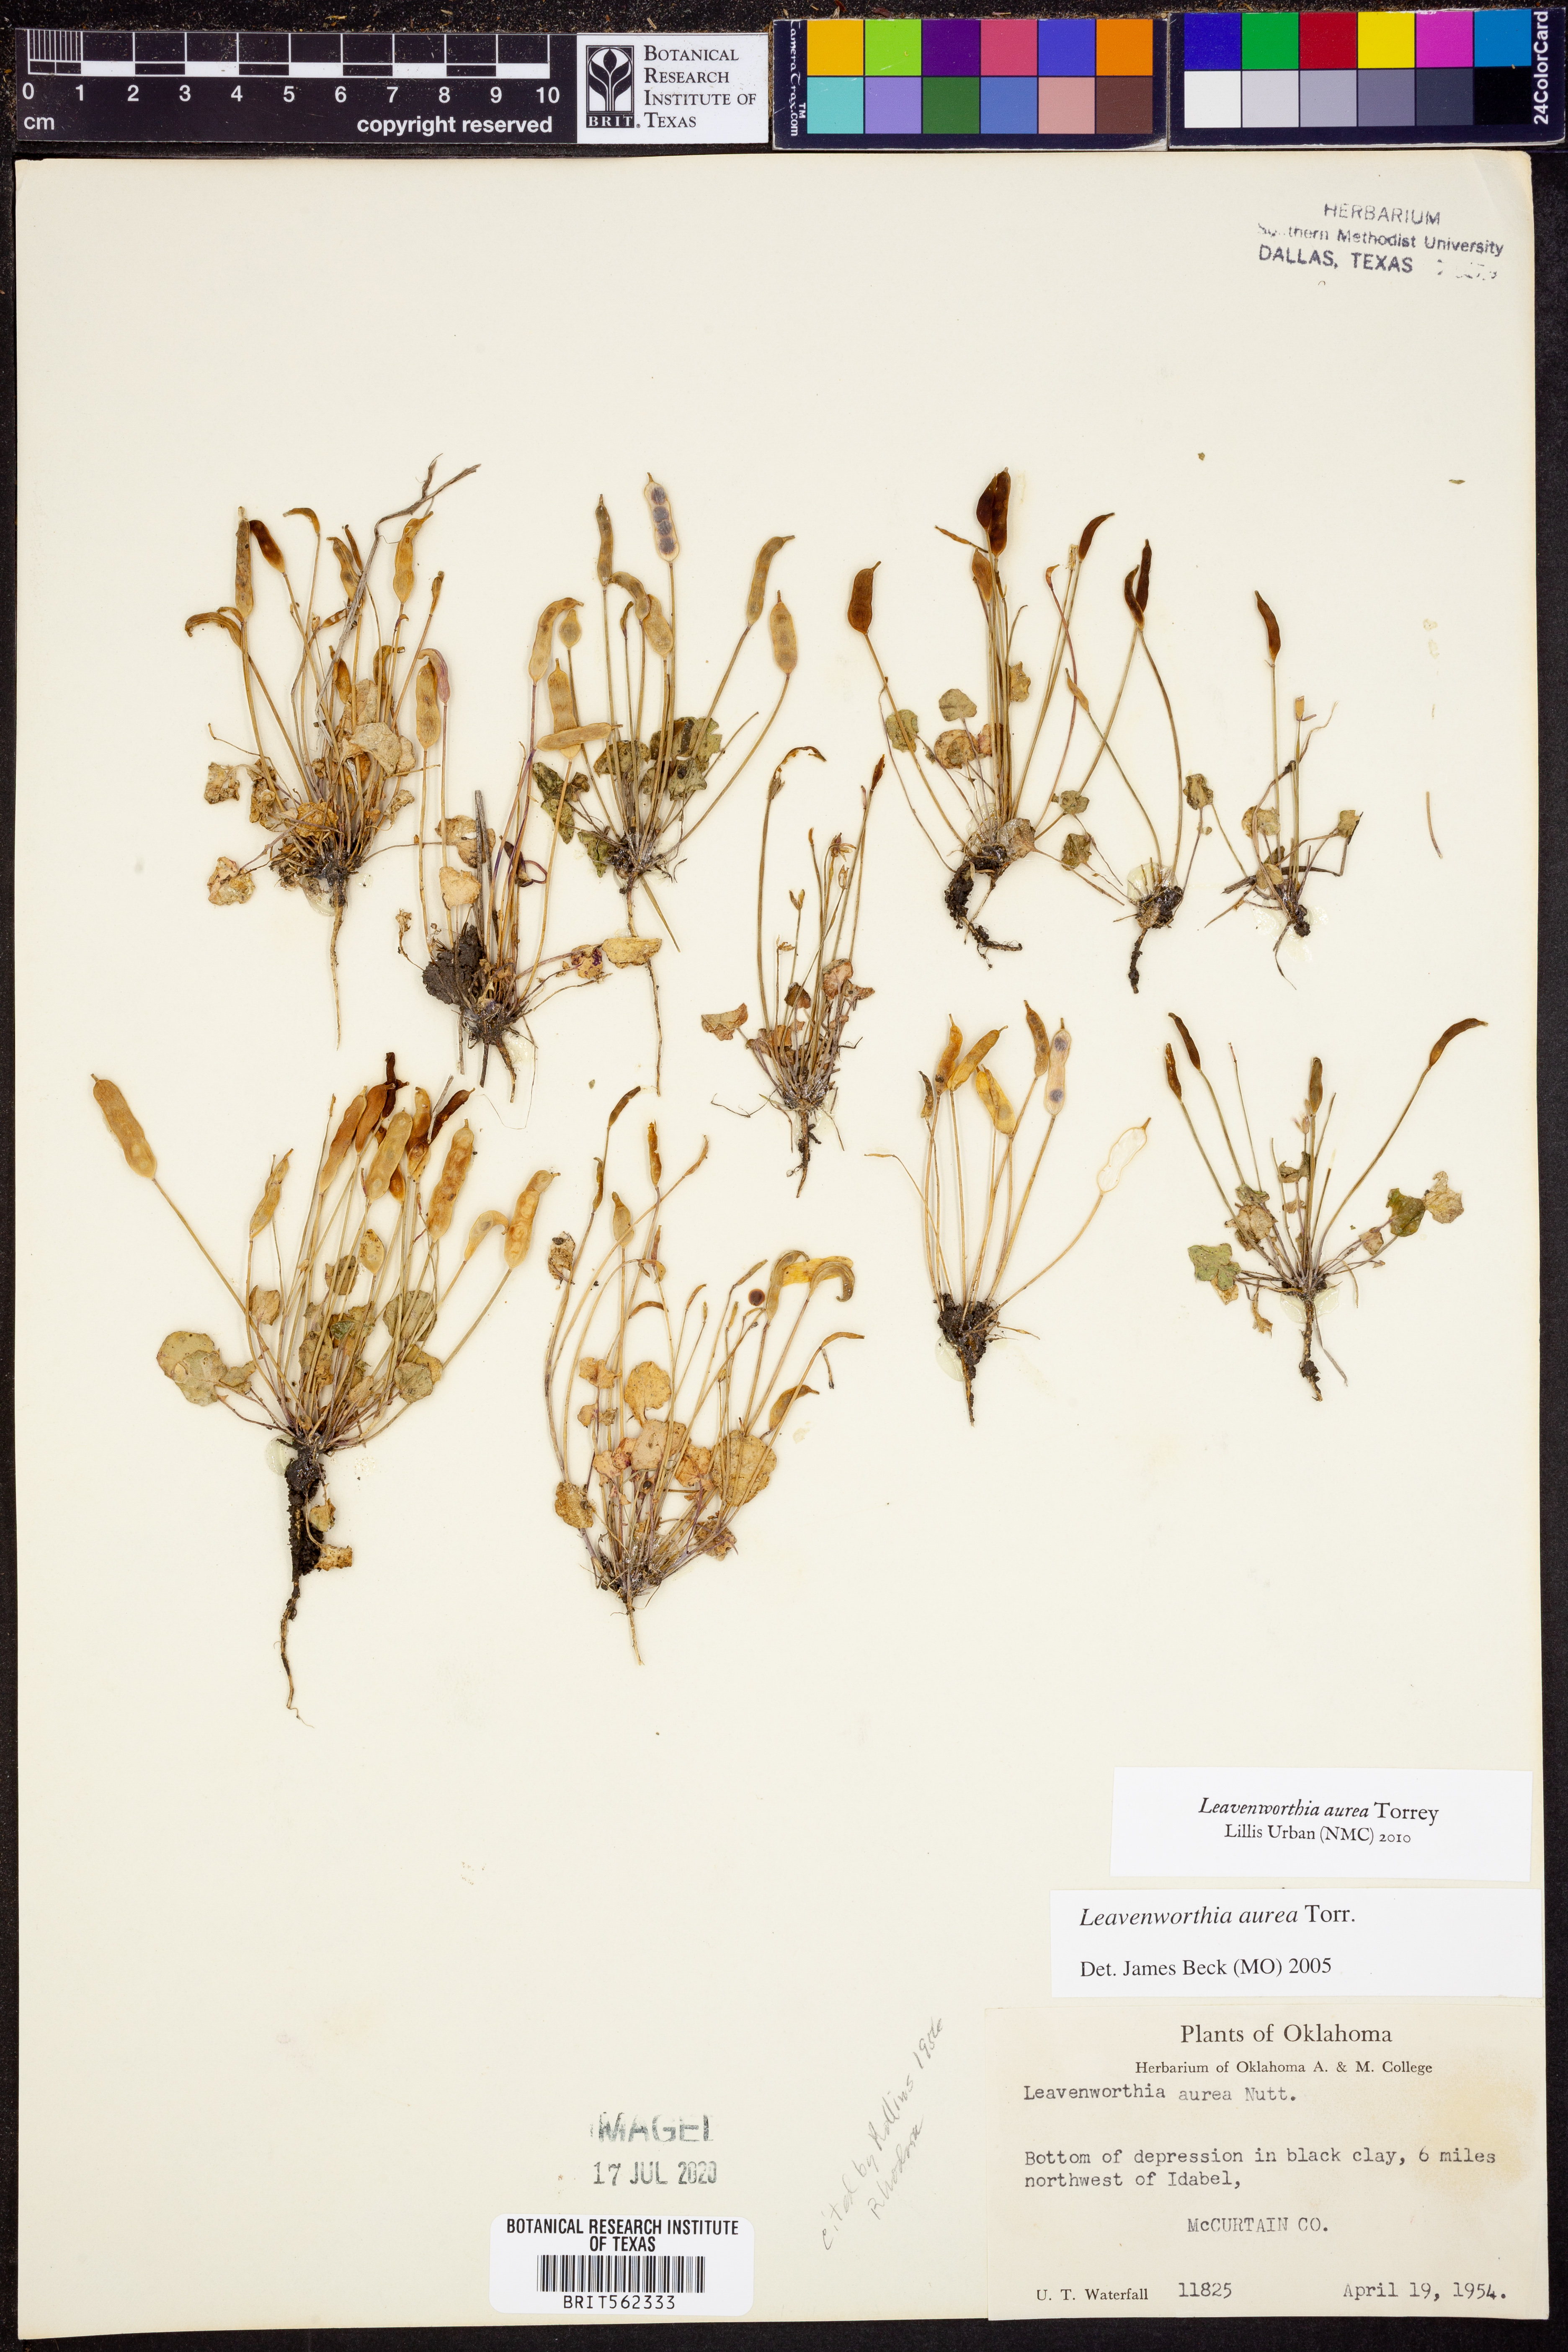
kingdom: Plantae
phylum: Tracheophyta
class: Magnoliopsida
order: Brassicales
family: Brassicaceae
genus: Leavenworthia
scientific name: Leavenworthia aurea
